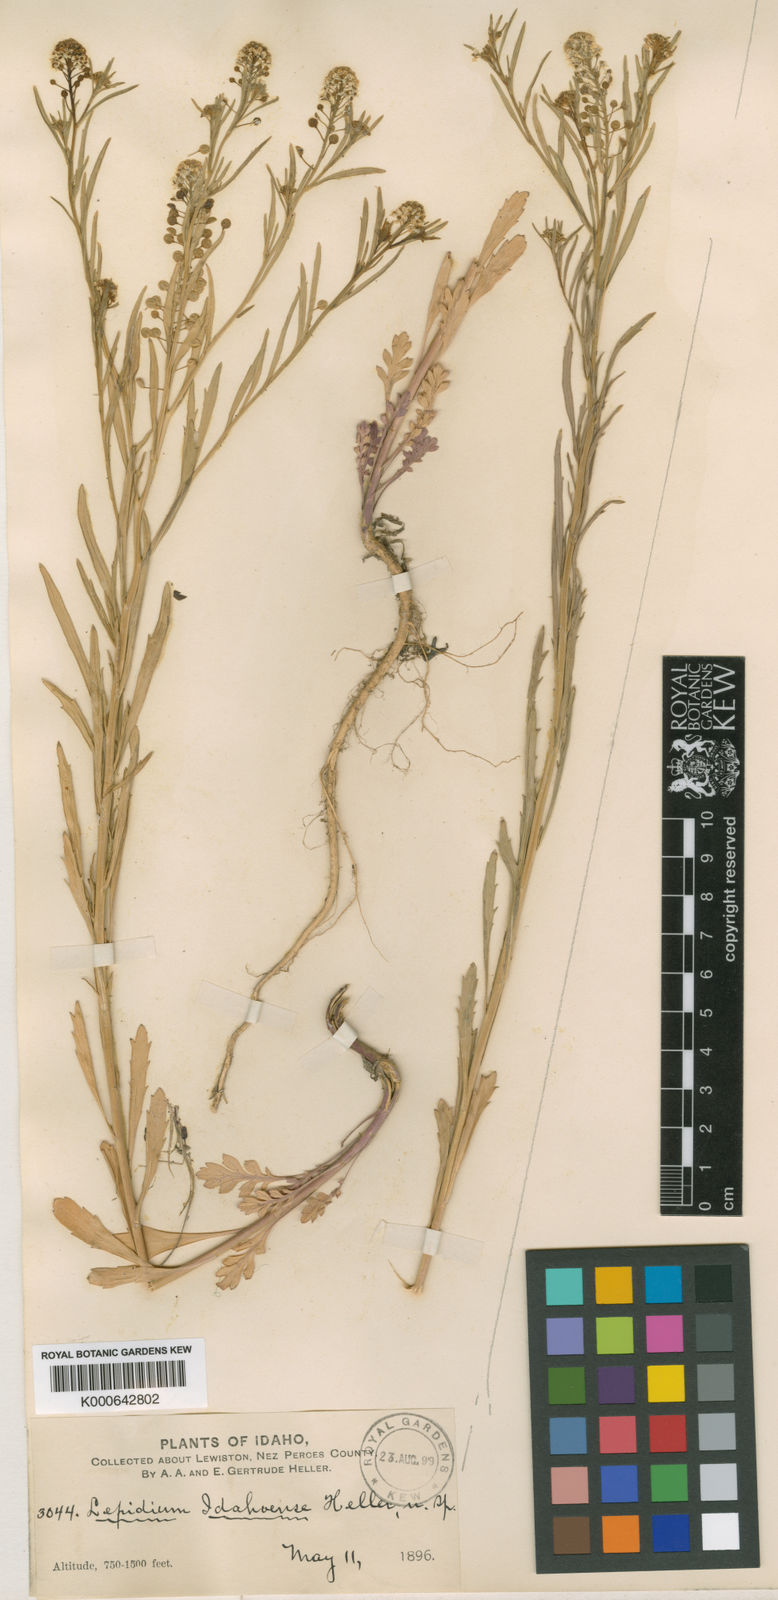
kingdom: Plantae
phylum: Tracheophyta
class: Magnoliopsida
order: Brassicales
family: Brassicaceae
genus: Lepidium
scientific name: Lepidium virginicum
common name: Least pepperwort
